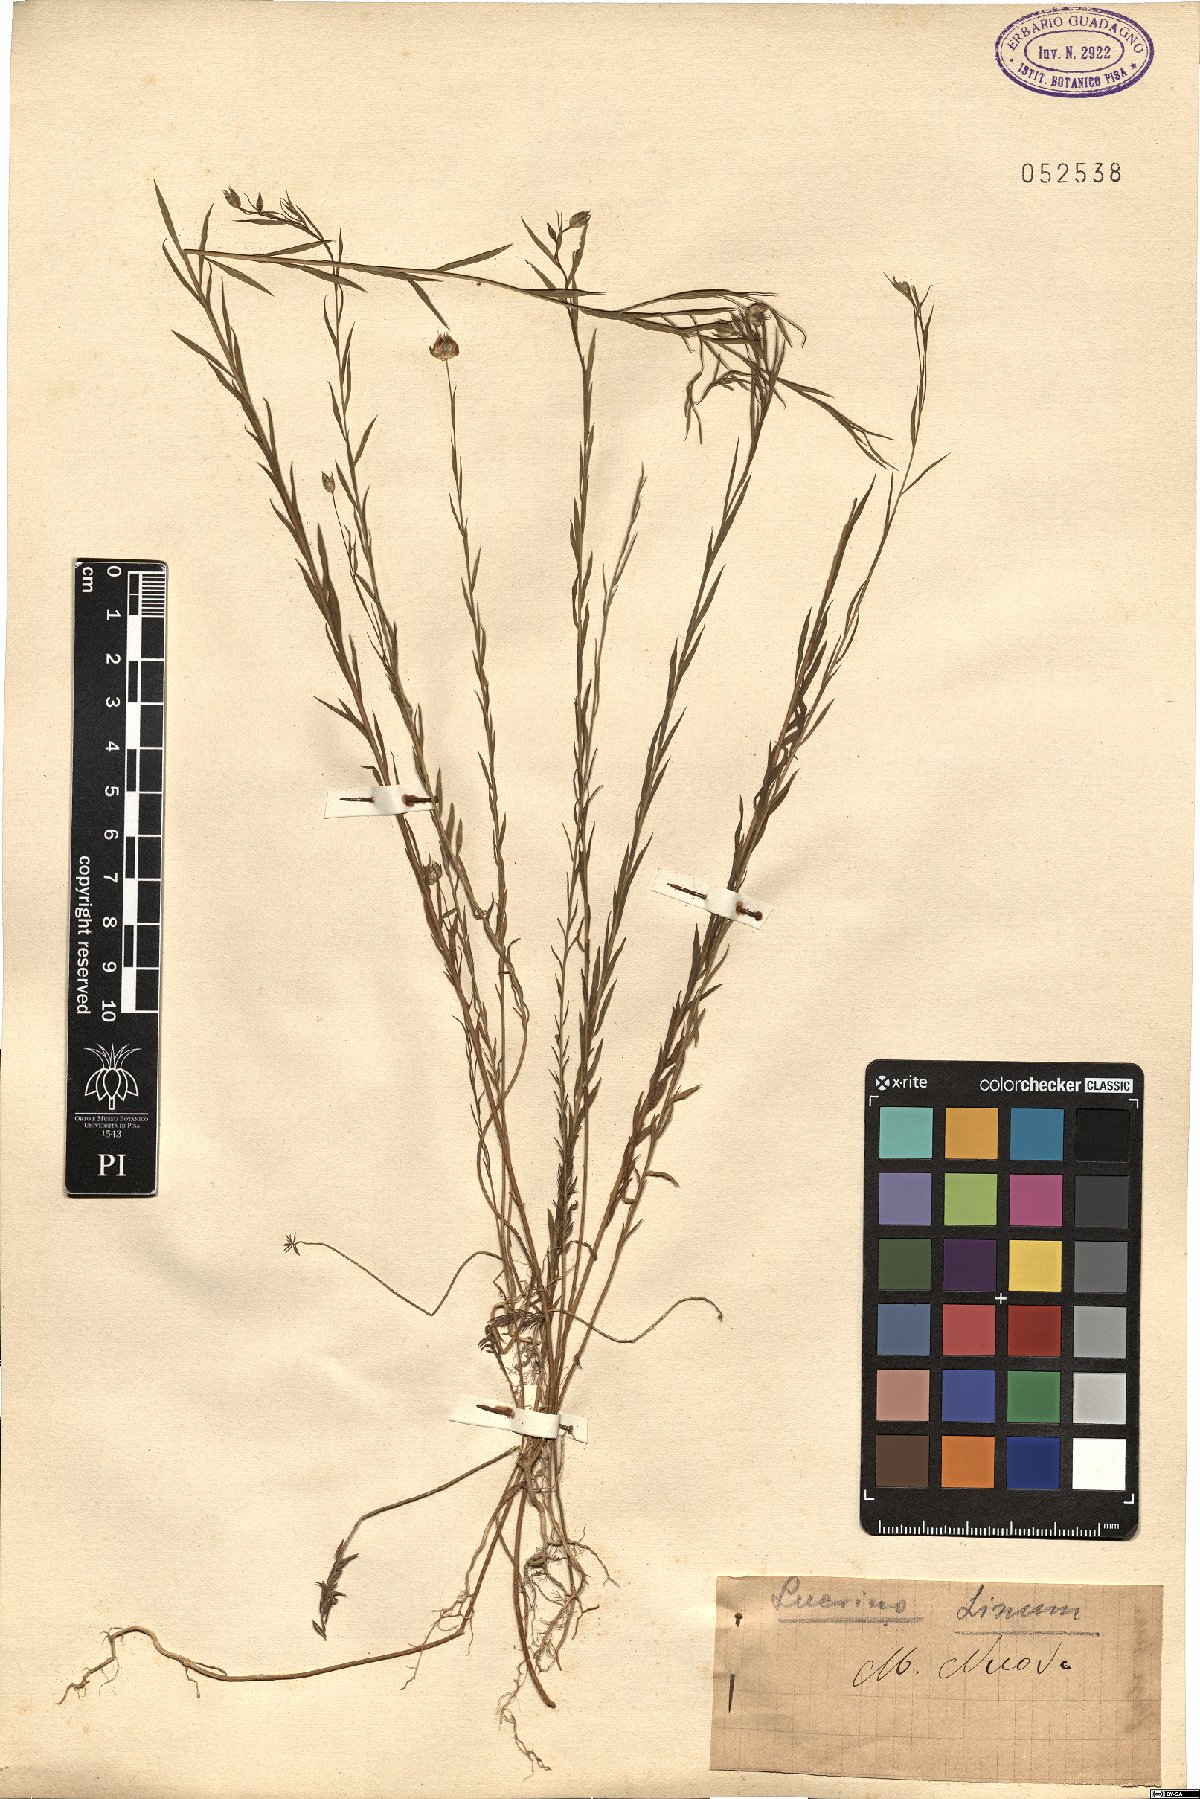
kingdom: Plantae
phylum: Tracheophyta
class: Magnoliopsida
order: Malpighiales
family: Linaceae
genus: Linum
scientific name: Linum
